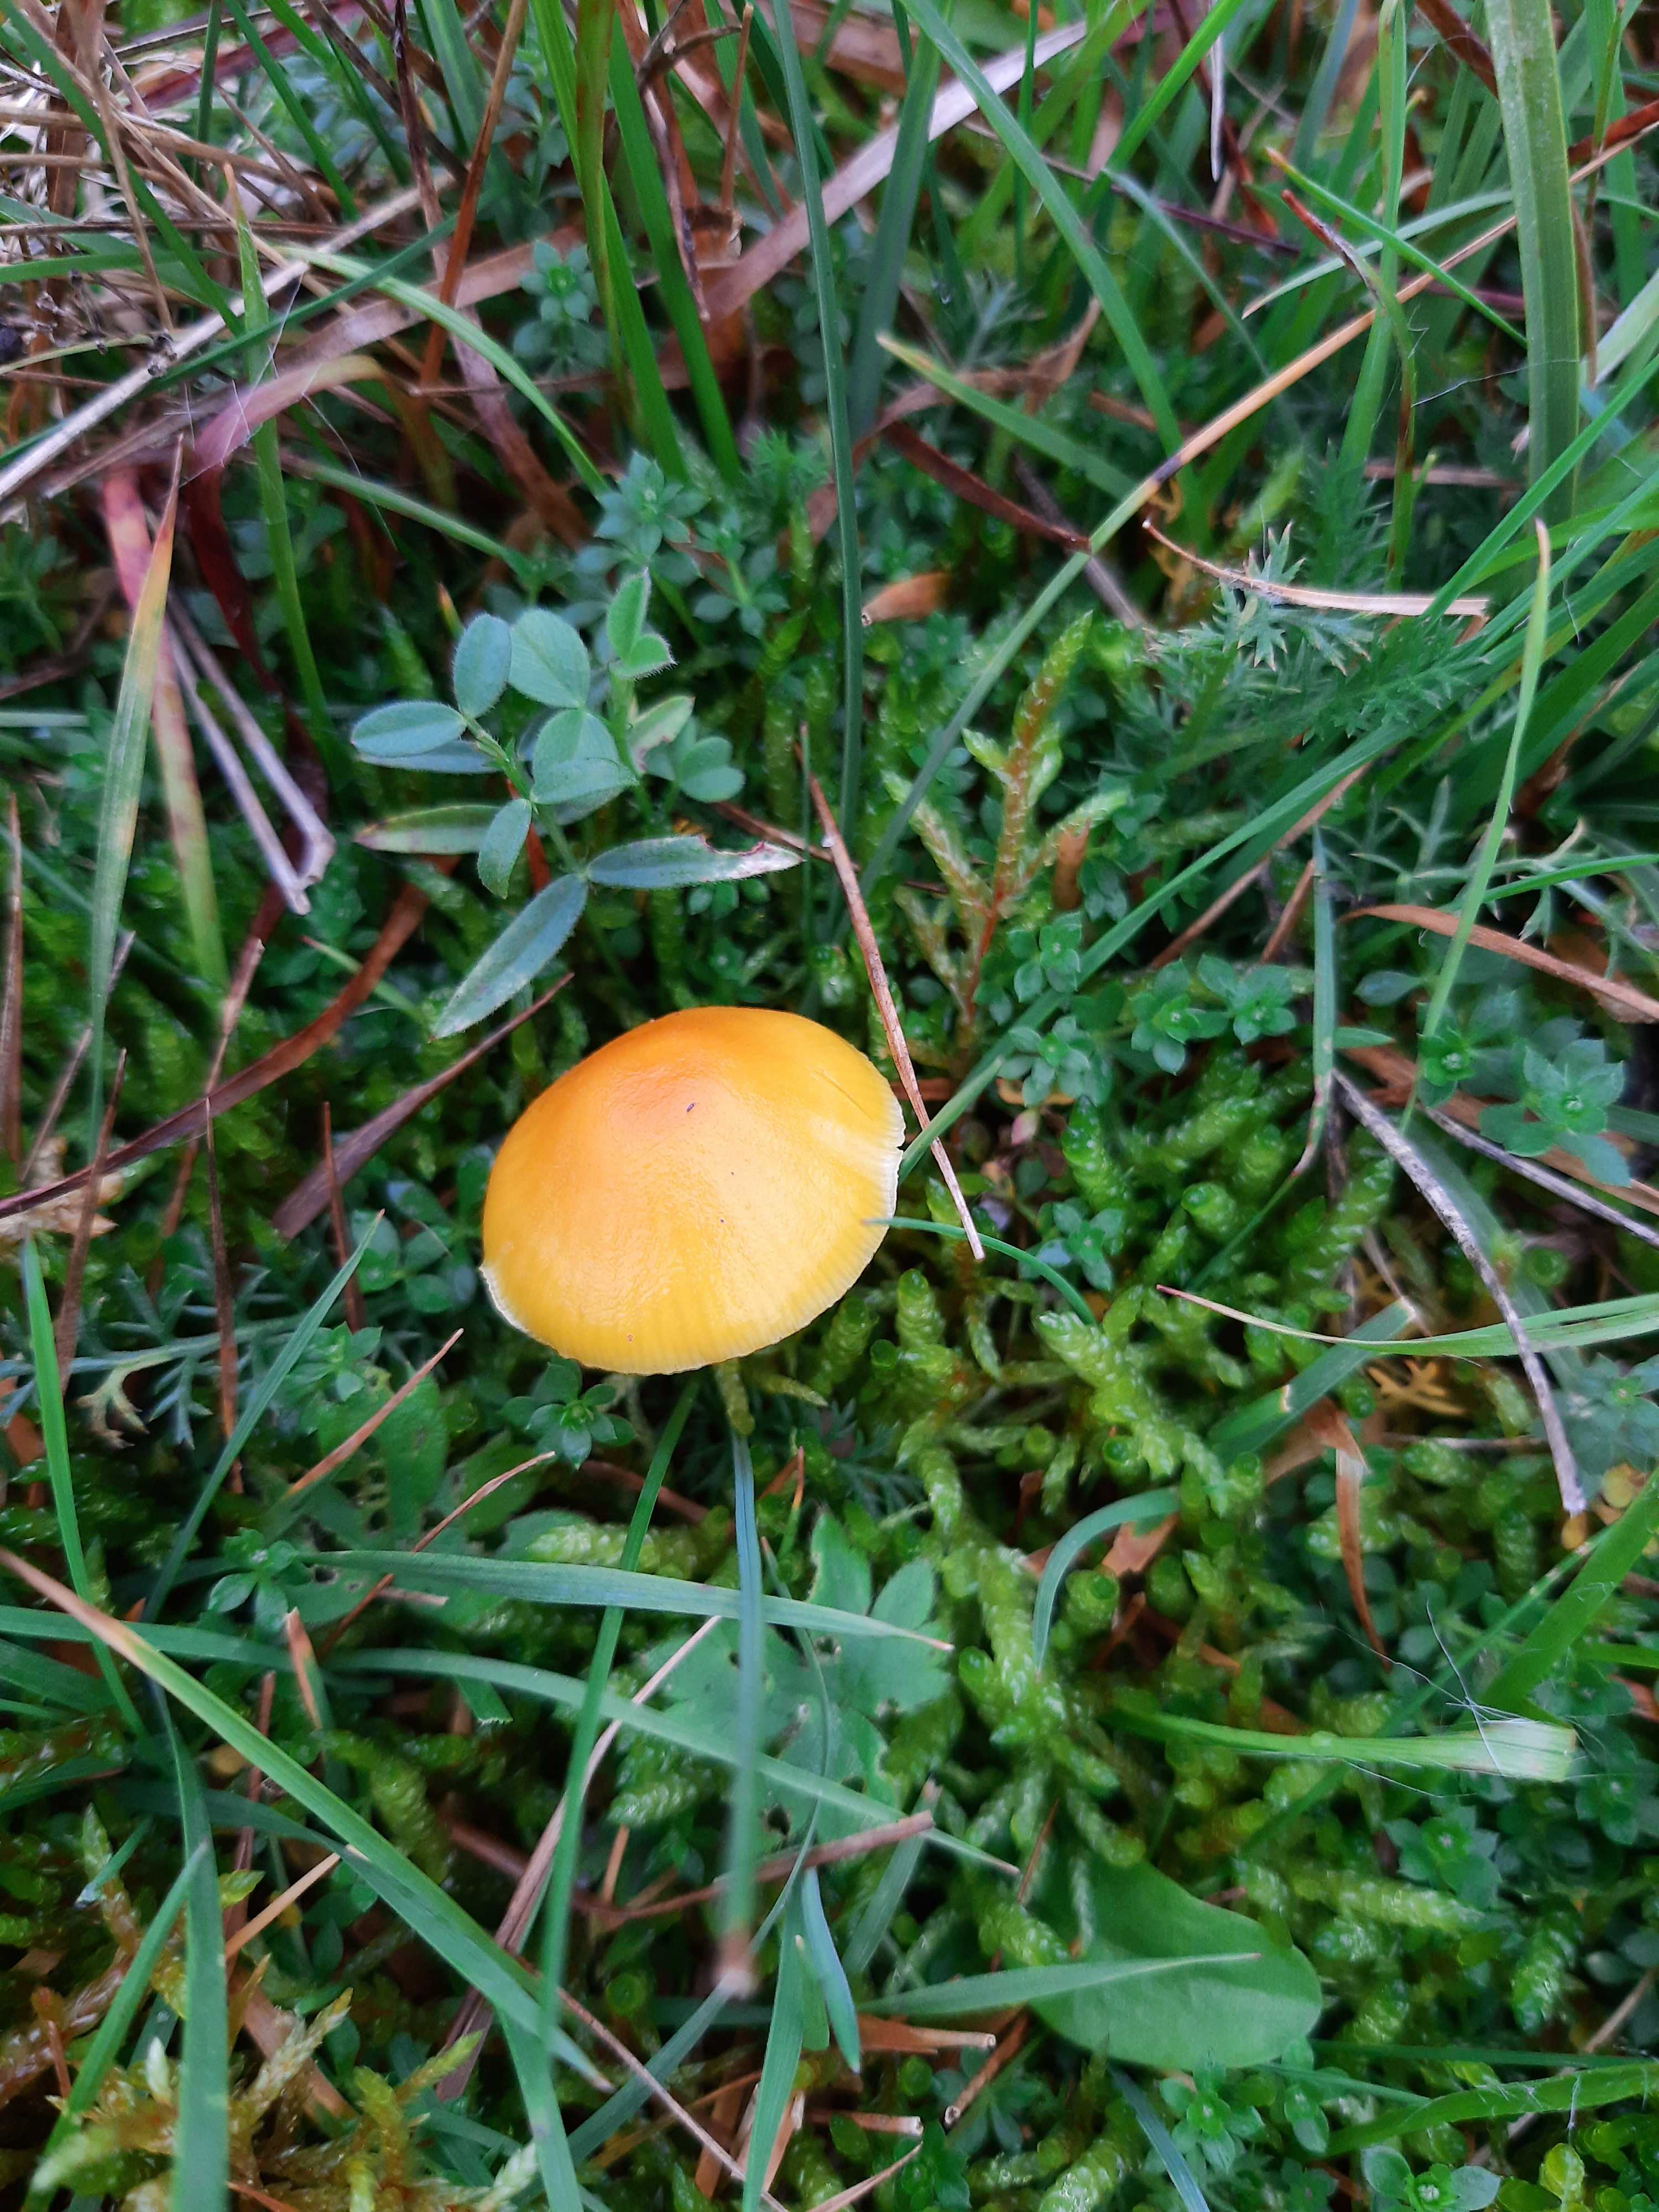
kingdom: Fungi
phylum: Basidiomycota
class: Agaricomycetes
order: Agaricales
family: Hygrophoraceae
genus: Hygrocybe
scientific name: Hygrocybe ceracea
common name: voksgul vokshat
